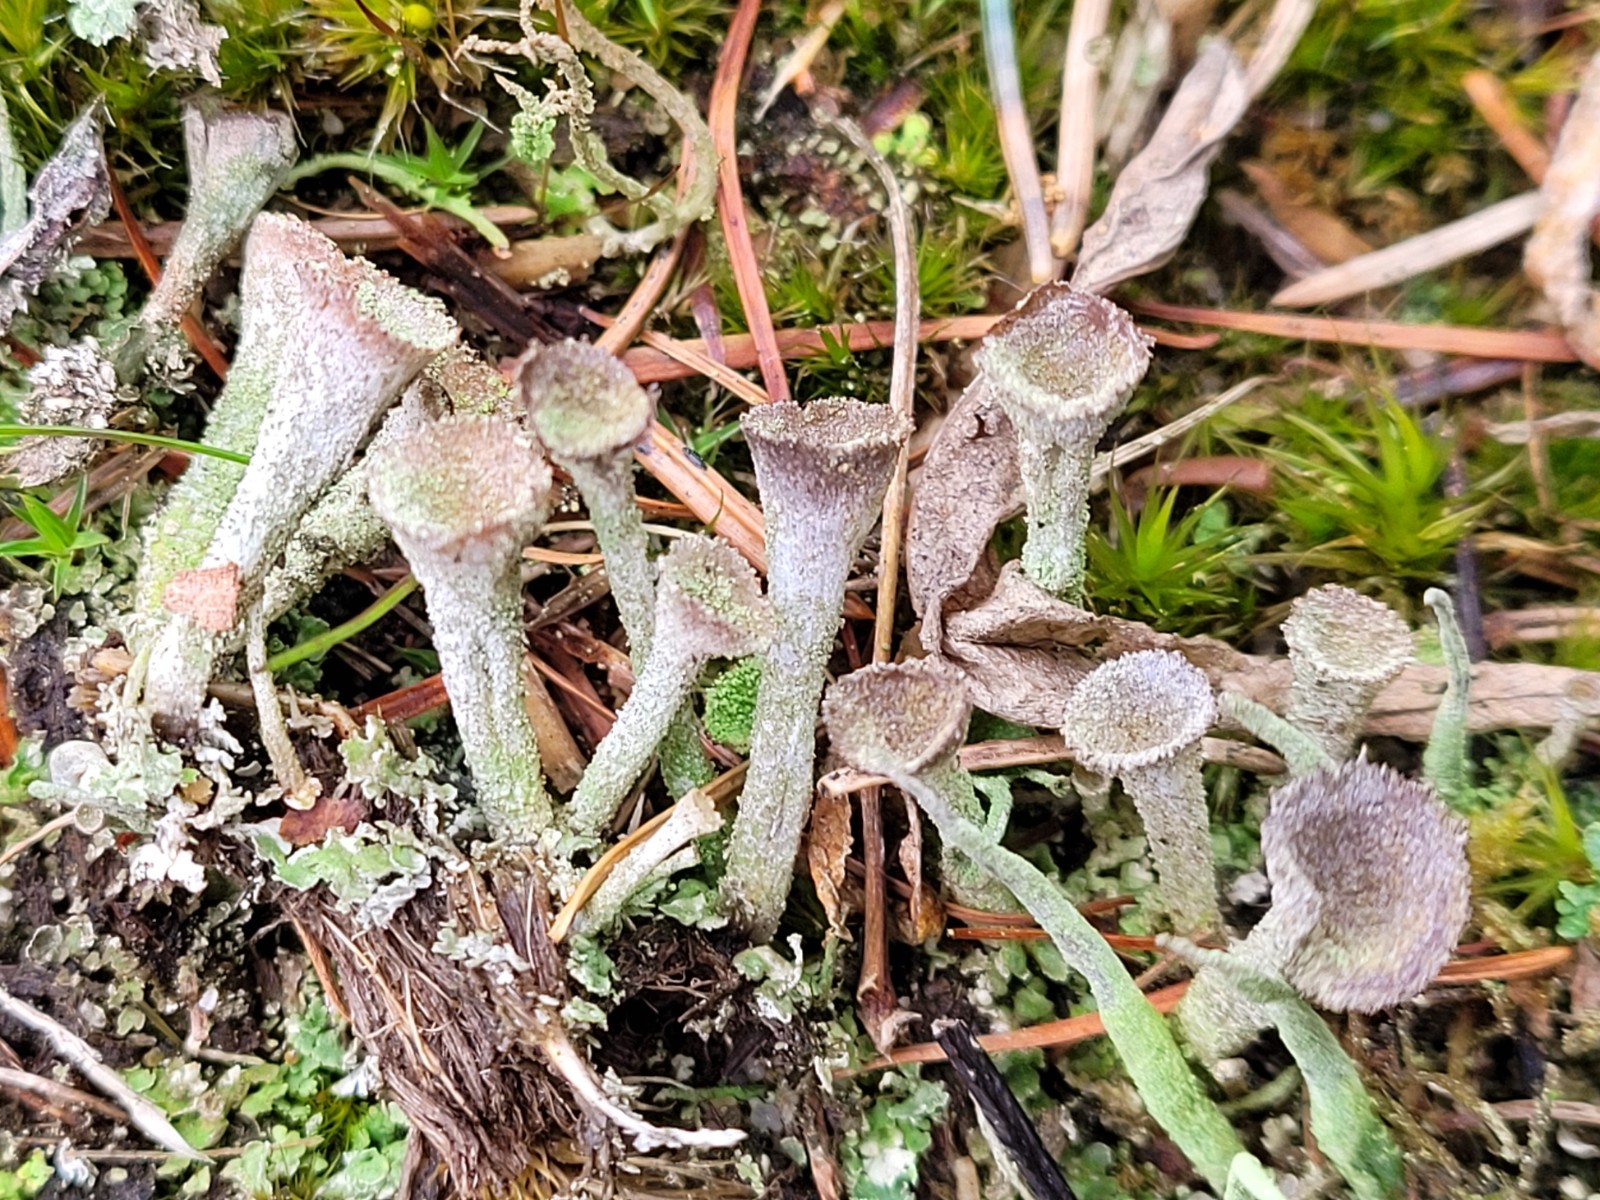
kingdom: Fungi
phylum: Ascomycota
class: Lecanoromycetes
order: Lecanorales
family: Cladoniaceae
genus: Cladonia
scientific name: Cladonia
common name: brungrøn bægerlav
